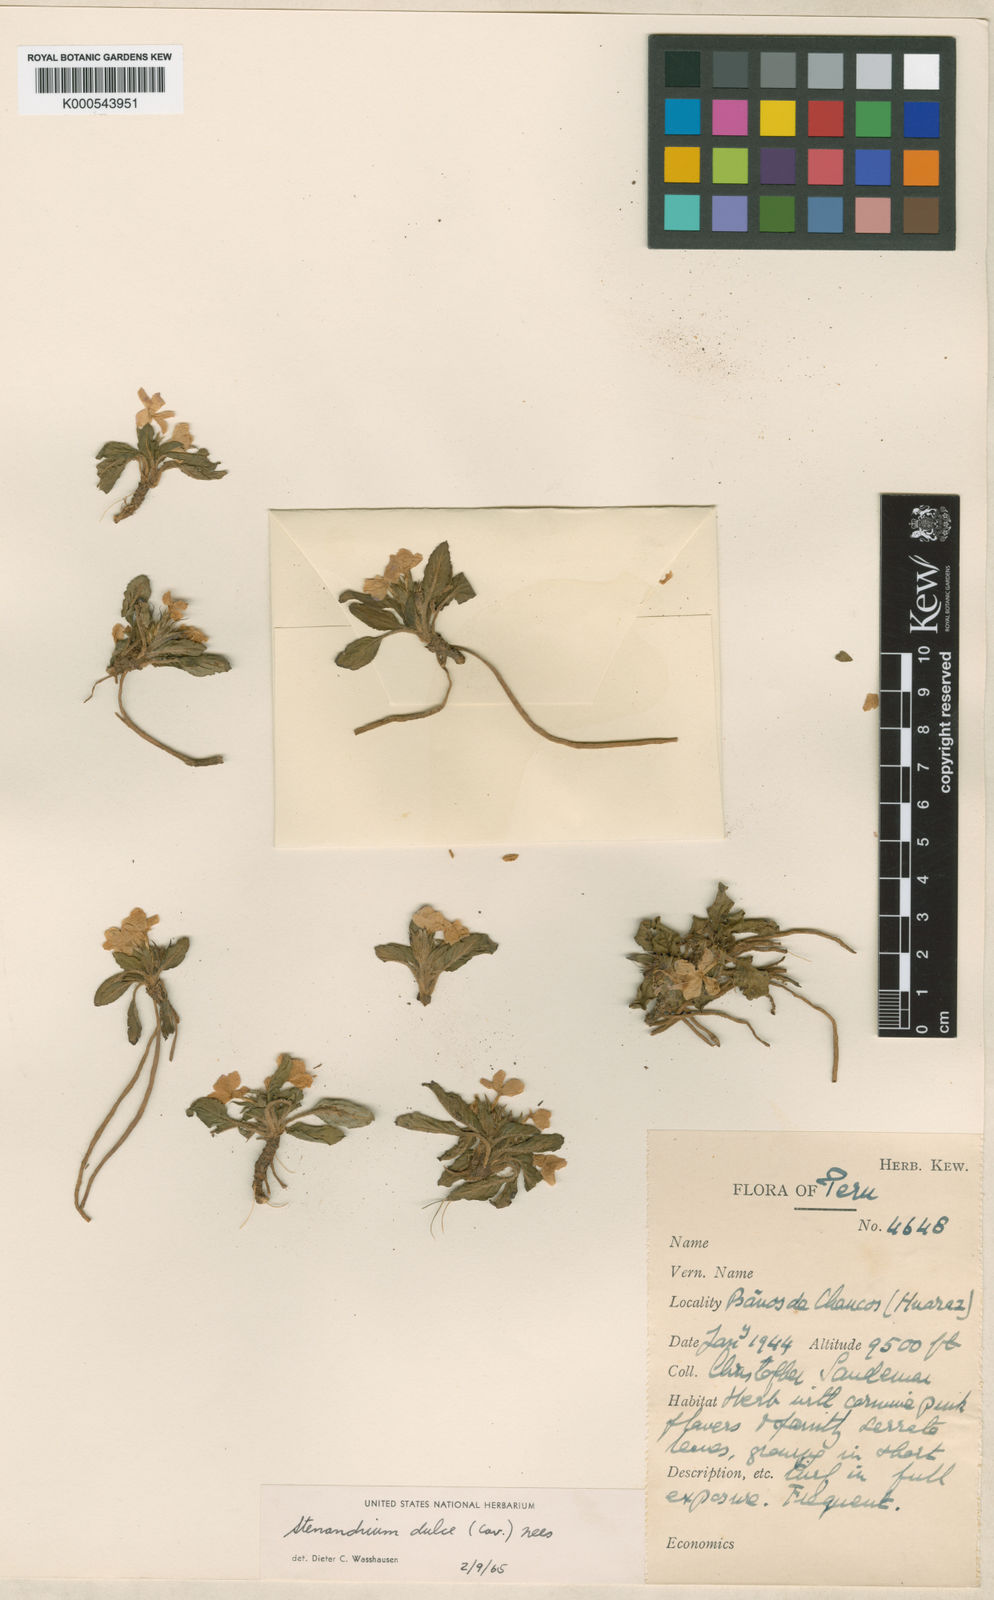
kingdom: Plantae
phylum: Tracheophyta
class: Magnoliopsida
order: Lamiales
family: Acanthaceae
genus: Stenandrium
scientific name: Stenandrium dulce
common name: Pinklet
